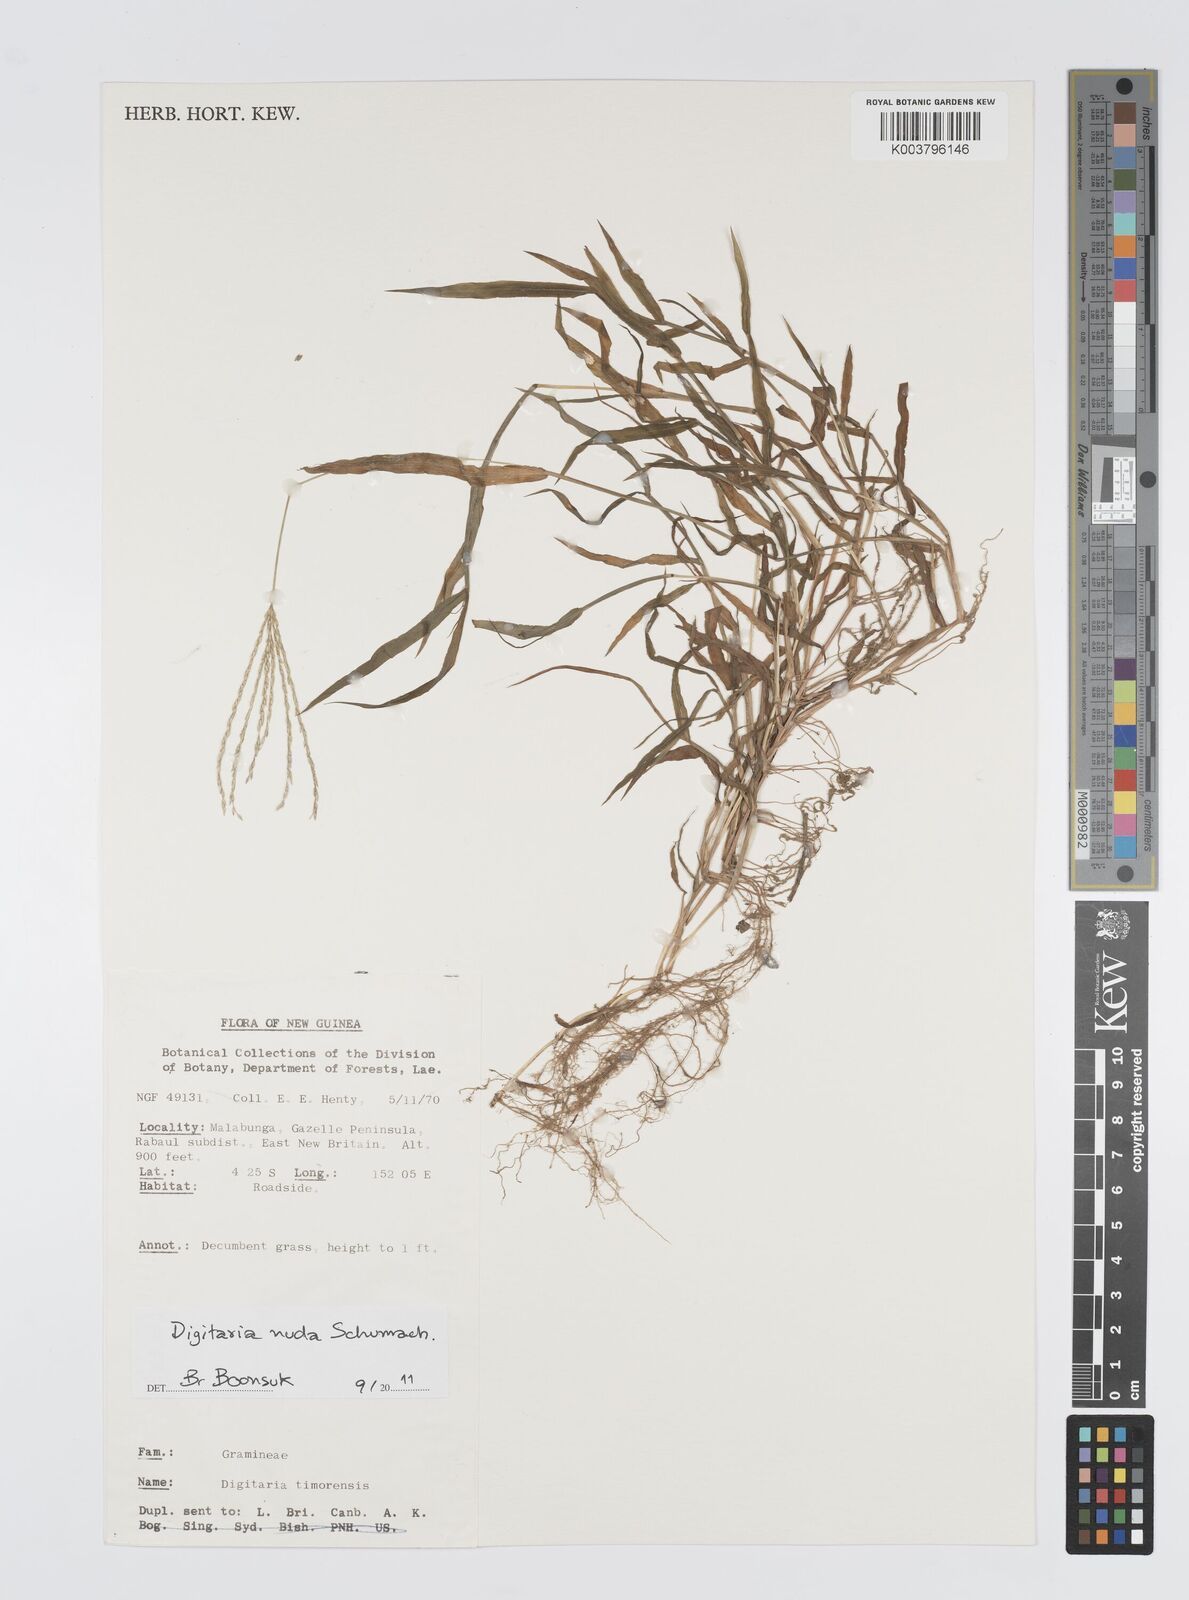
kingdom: Plantae
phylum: Tracheophyta
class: Liliopsida
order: Poales
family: Poaceae
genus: Digitaria
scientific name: Digitaria nuda
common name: Naked crabgrass
